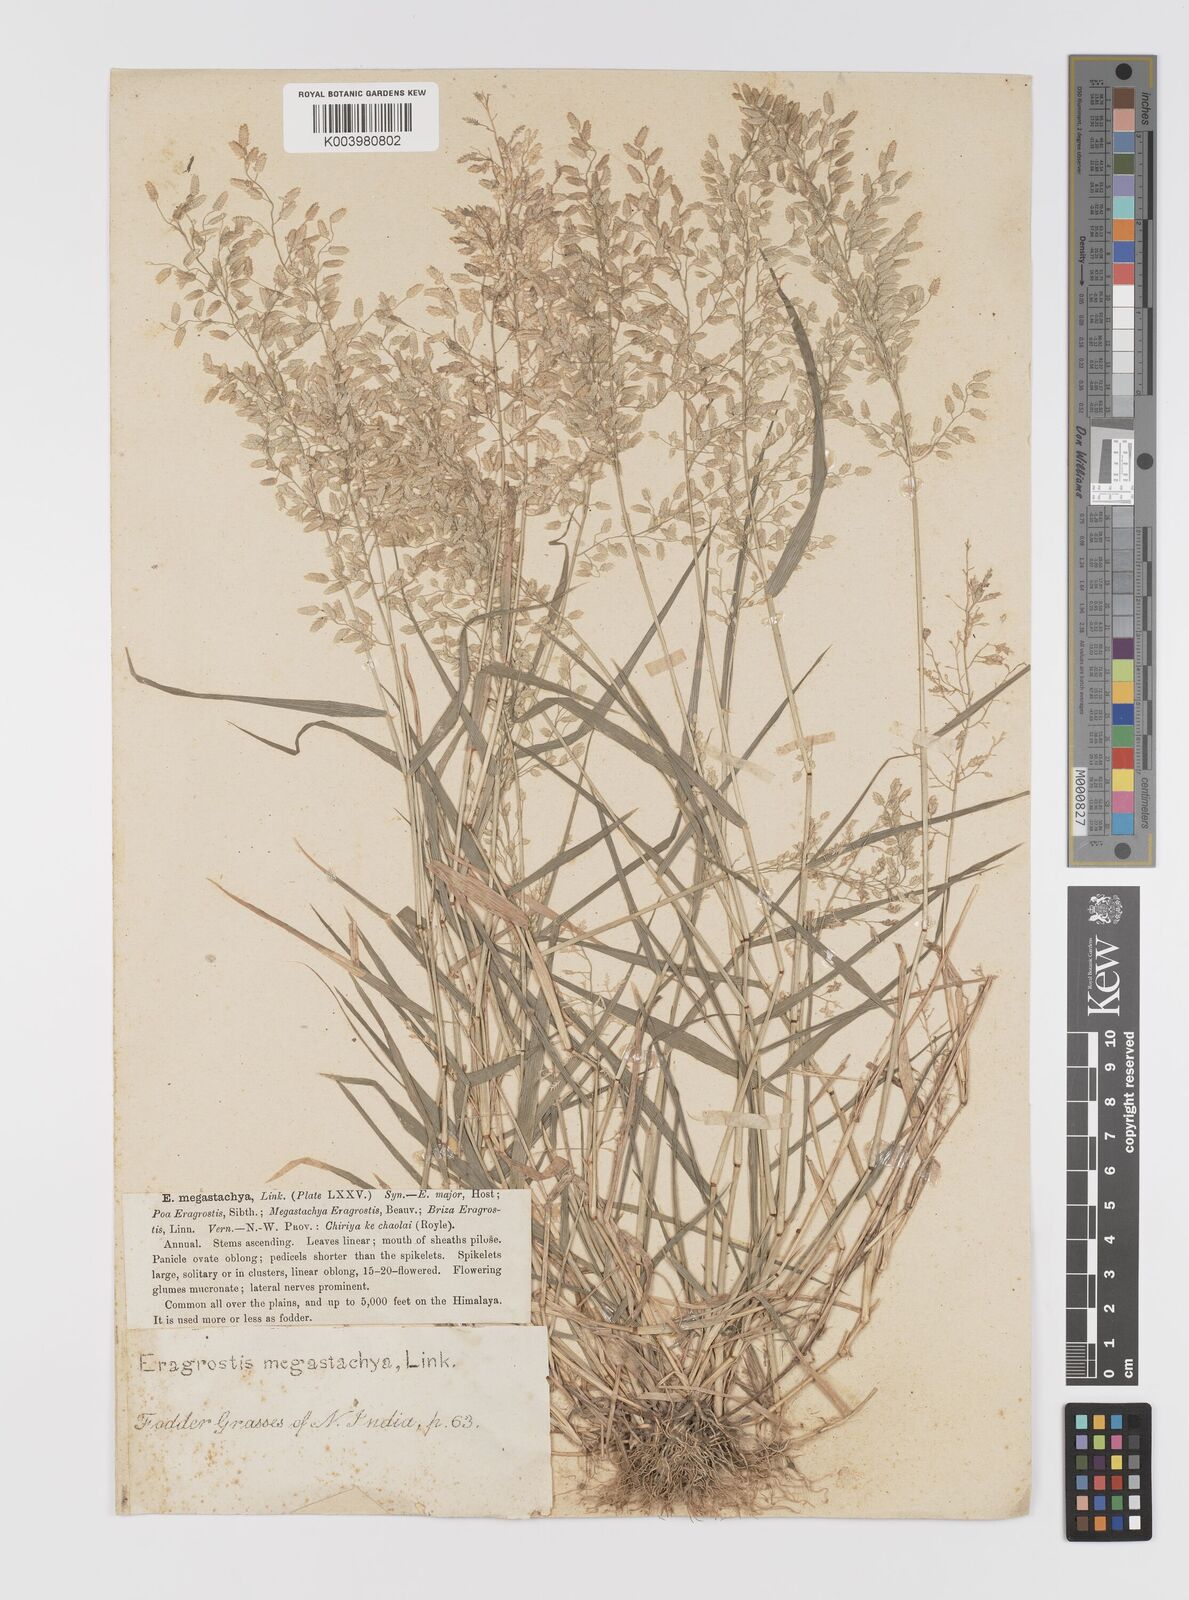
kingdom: Plantae
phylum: Tracheophyta
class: Liliopsida
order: Poales
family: Poaceae
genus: Eragrostis
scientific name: Eragrostis cilianensis
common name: Stinkgrass
